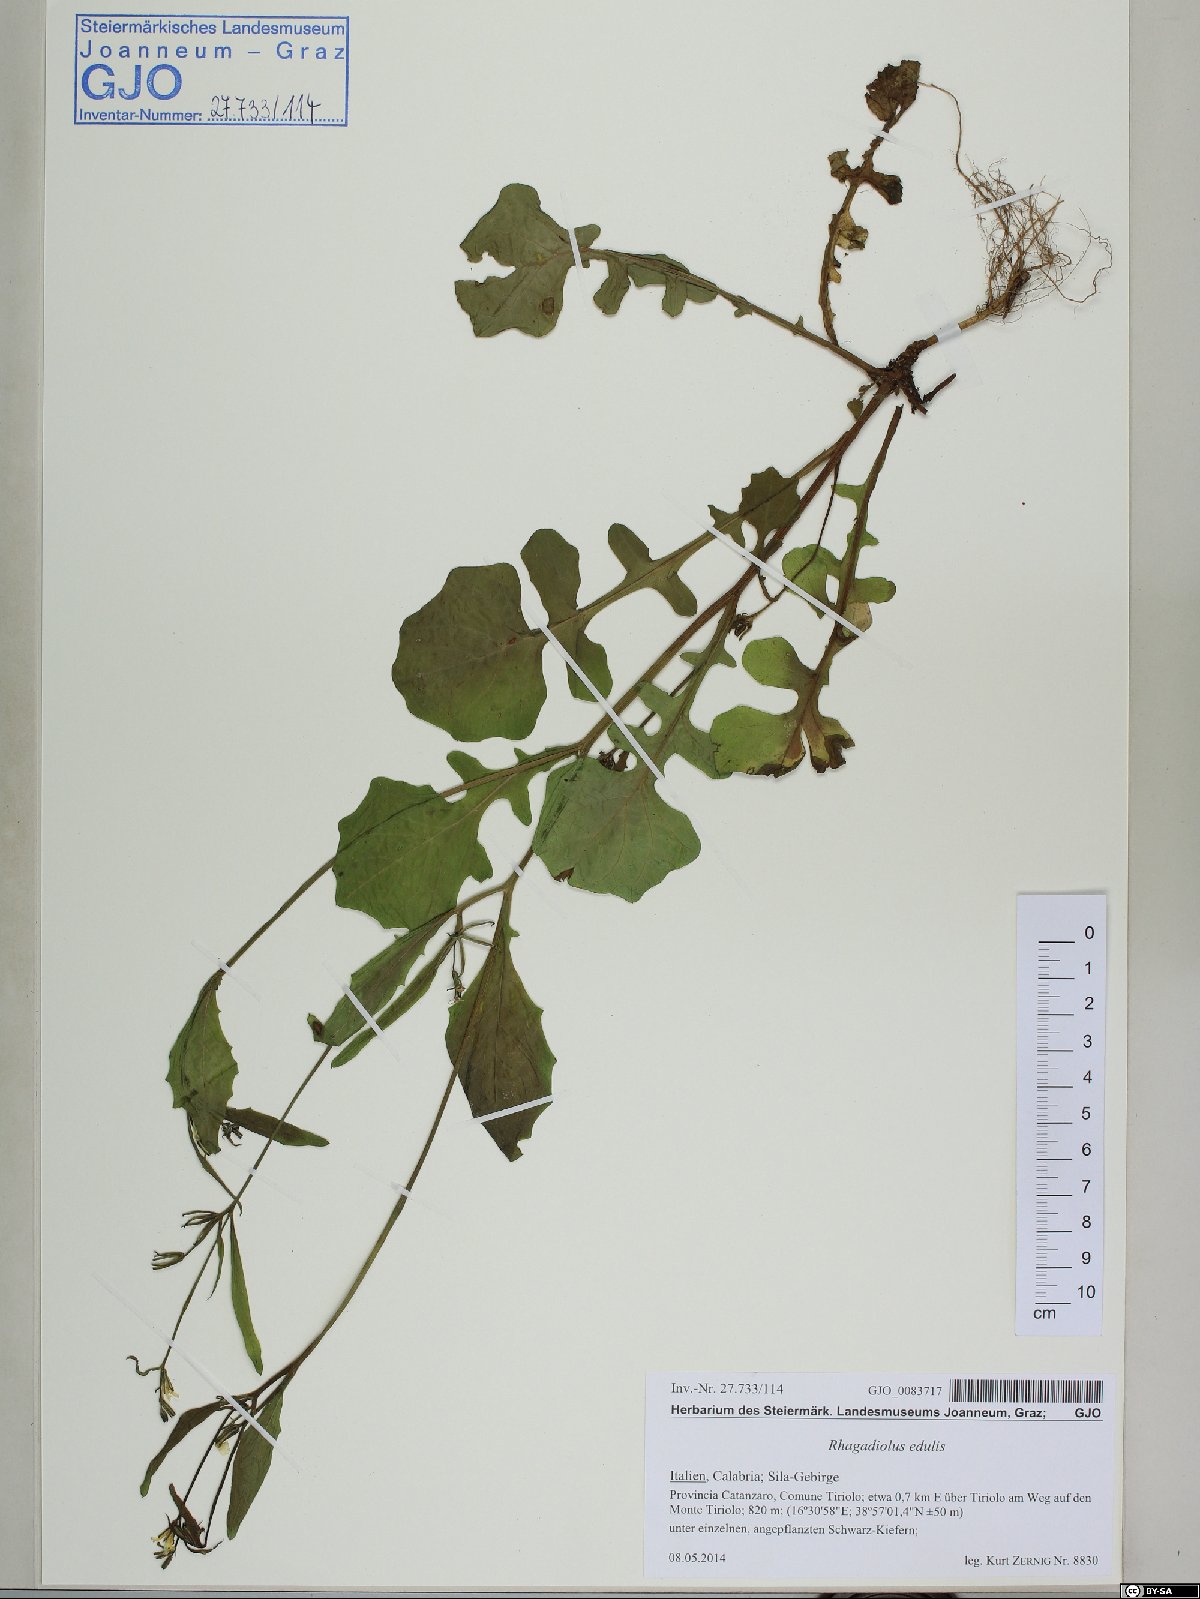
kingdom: Plantae
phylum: Tracheophyta
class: Magnoliopsida
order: Asterales
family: Asteraceae
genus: Rhagadiolus
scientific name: Rhagadiolus edulis
